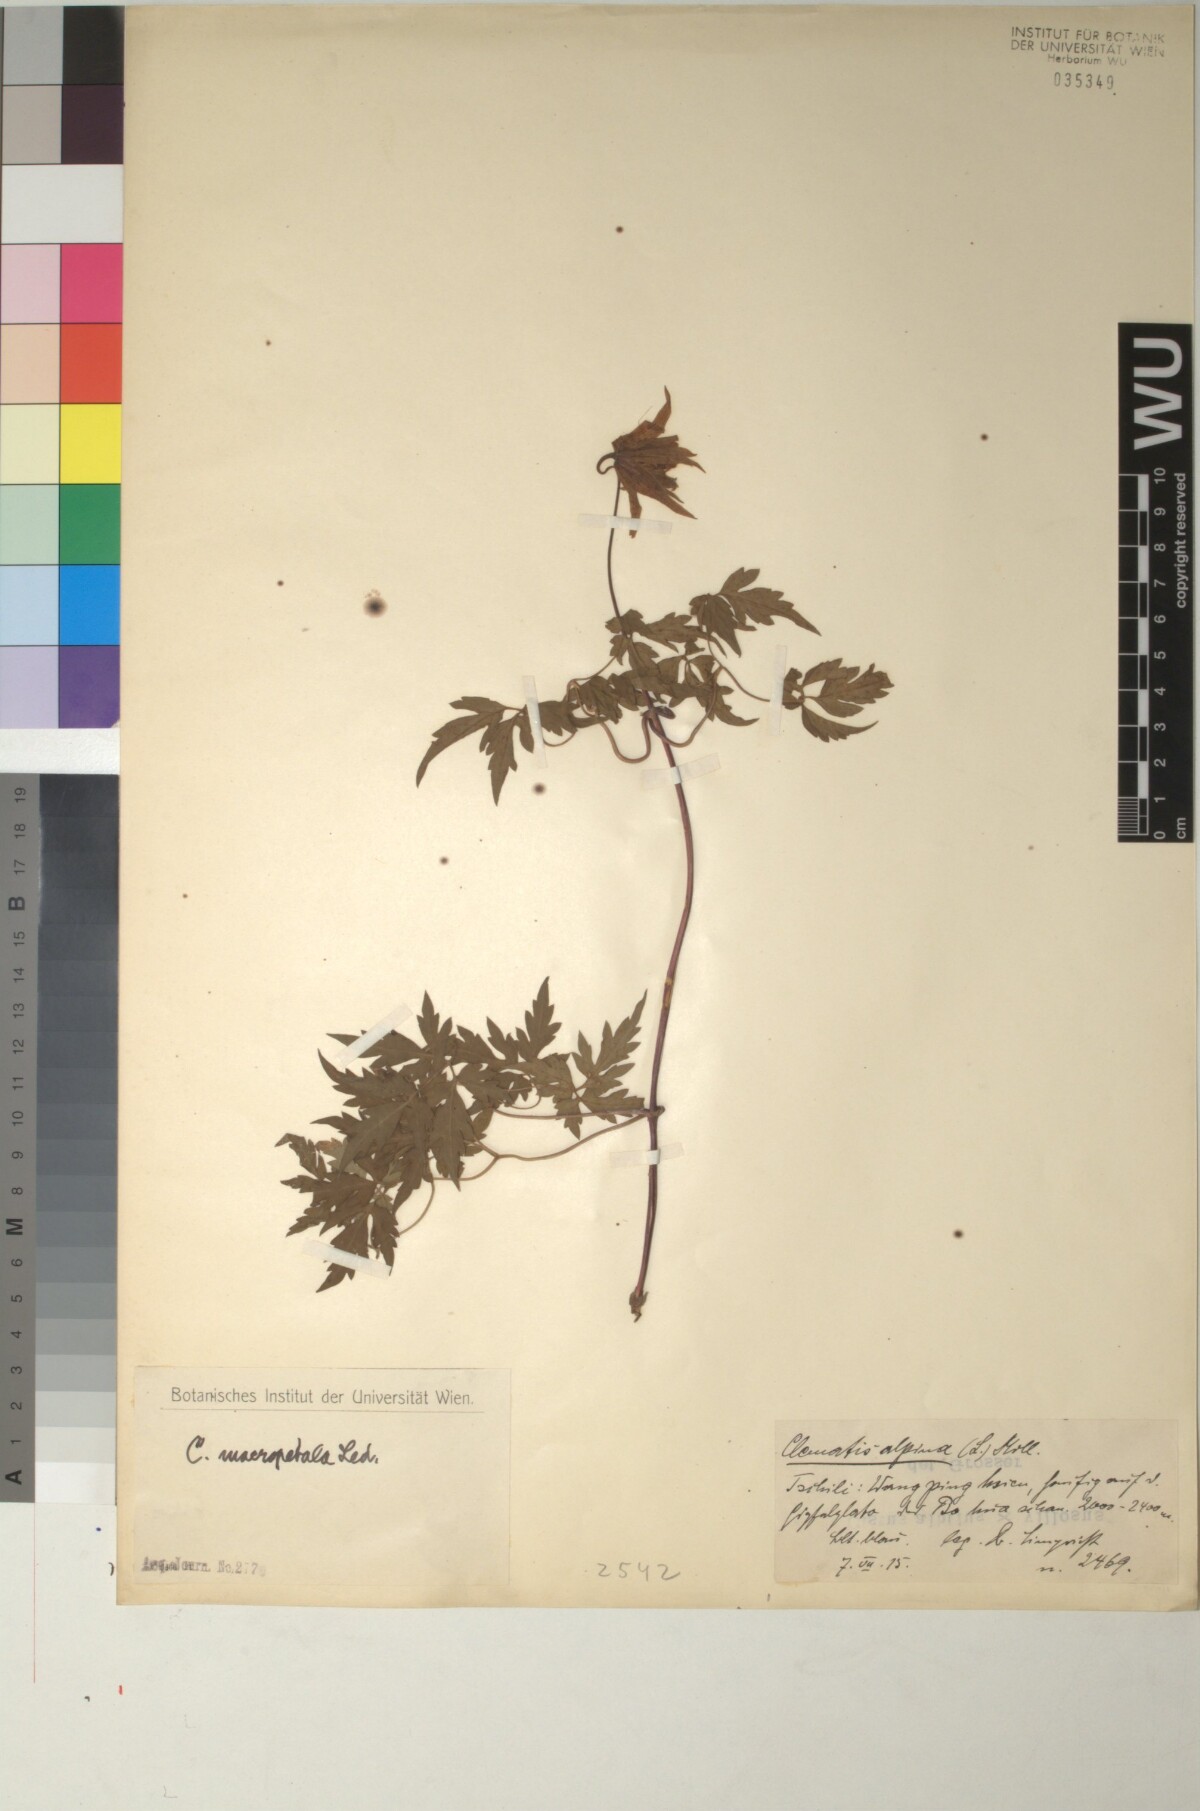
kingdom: Plantae
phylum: Tracheophyta
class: Magnoliopsida
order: Ranunculales
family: Ranunculaceae
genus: Clematis
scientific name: Clematis macropetala
